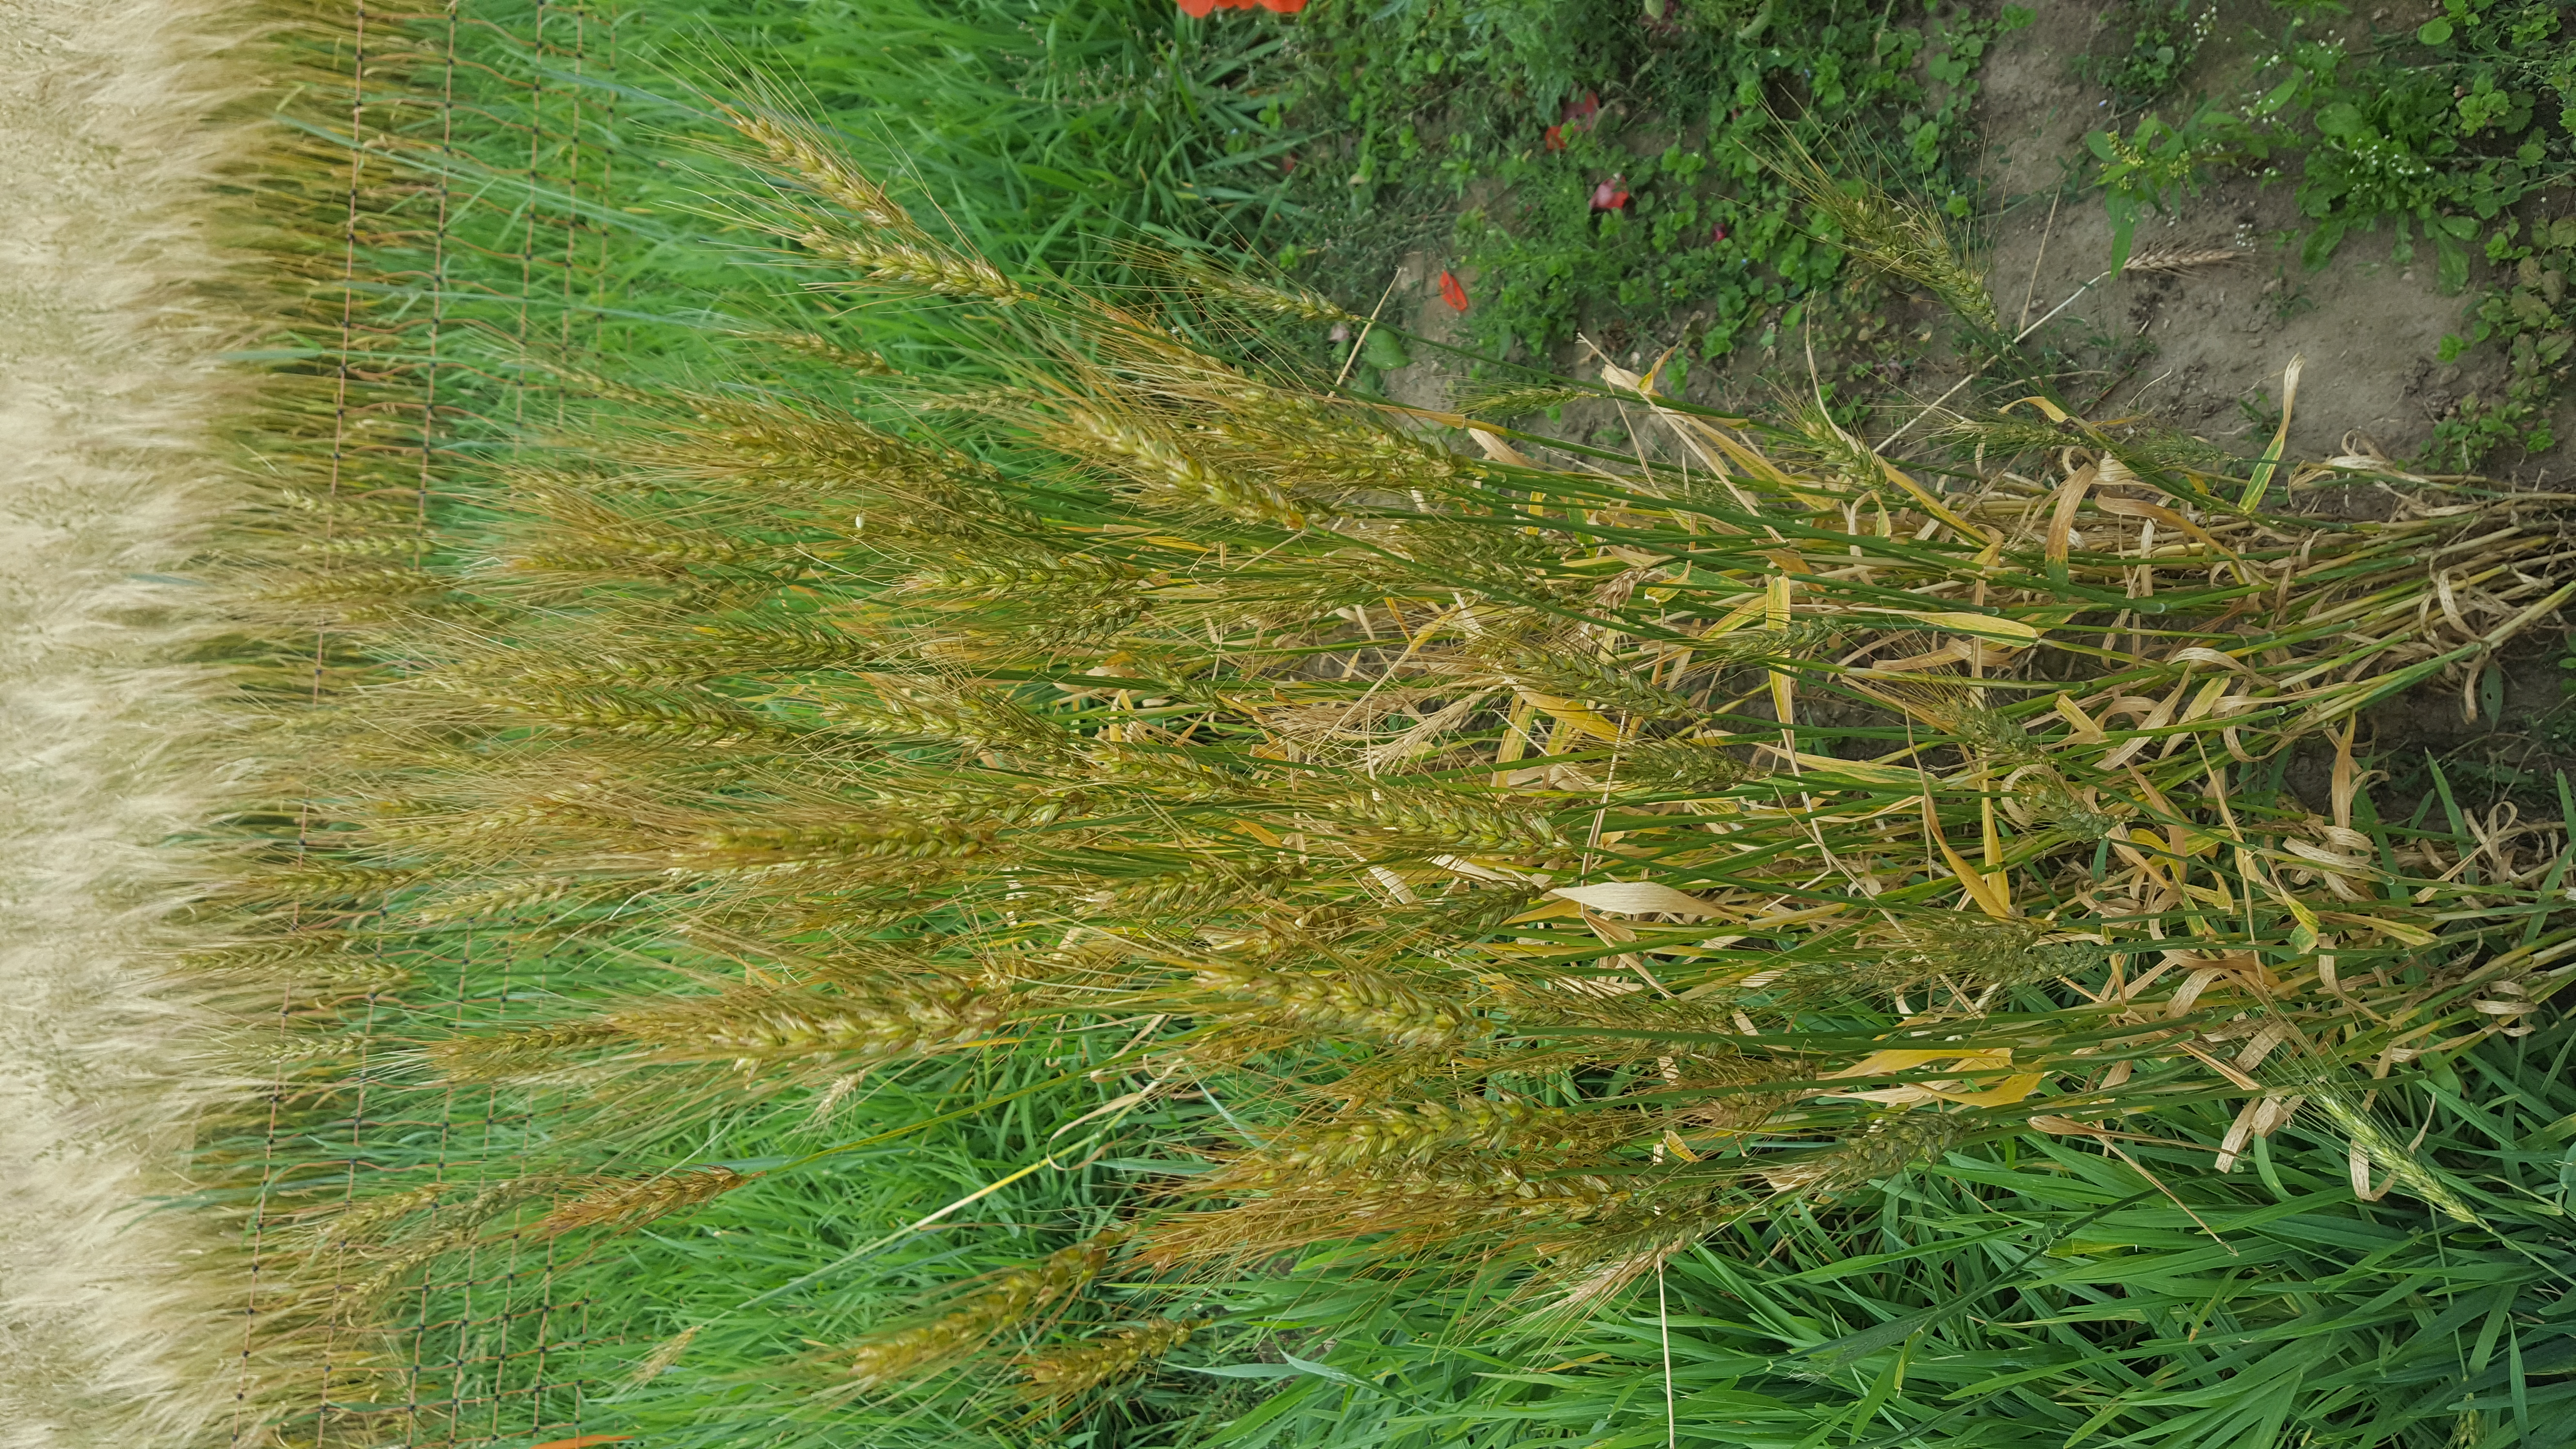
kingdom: Plantae
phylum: Tracheophyta
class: Liliopsida
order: Poales
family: Poaceae
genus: Triticum
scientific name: Triticum aestivum
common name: Common wheat
